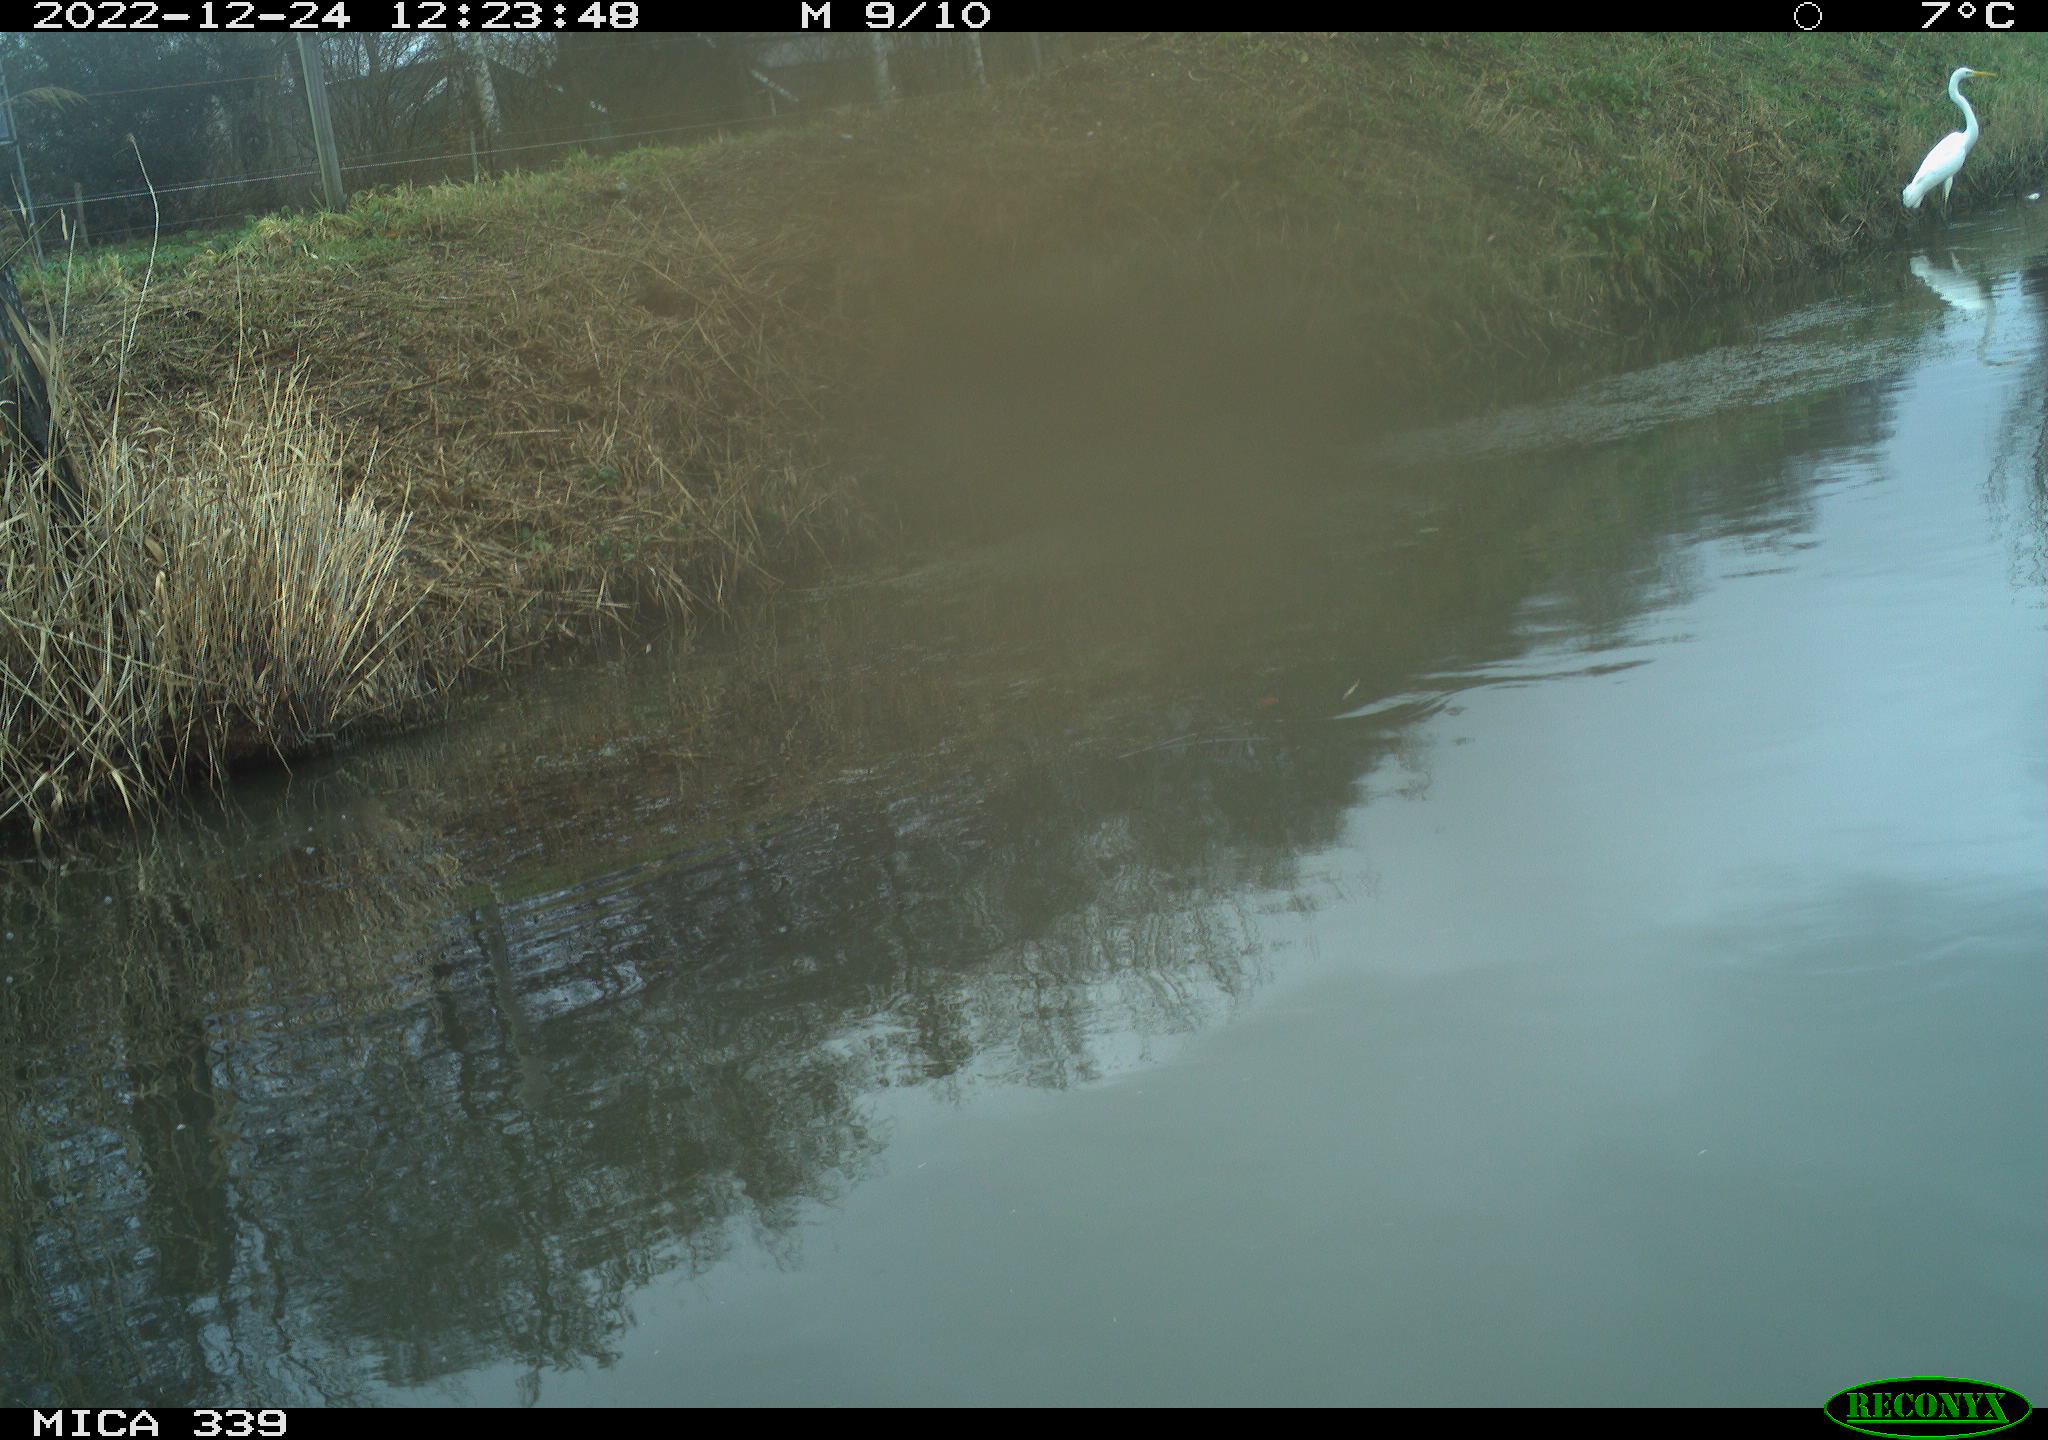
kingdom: Animalia
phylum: Chordata
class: Aves
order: Pelecaniformes
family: Ardeidae
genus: Ardea
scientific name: Ardea alba
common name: Great egret
